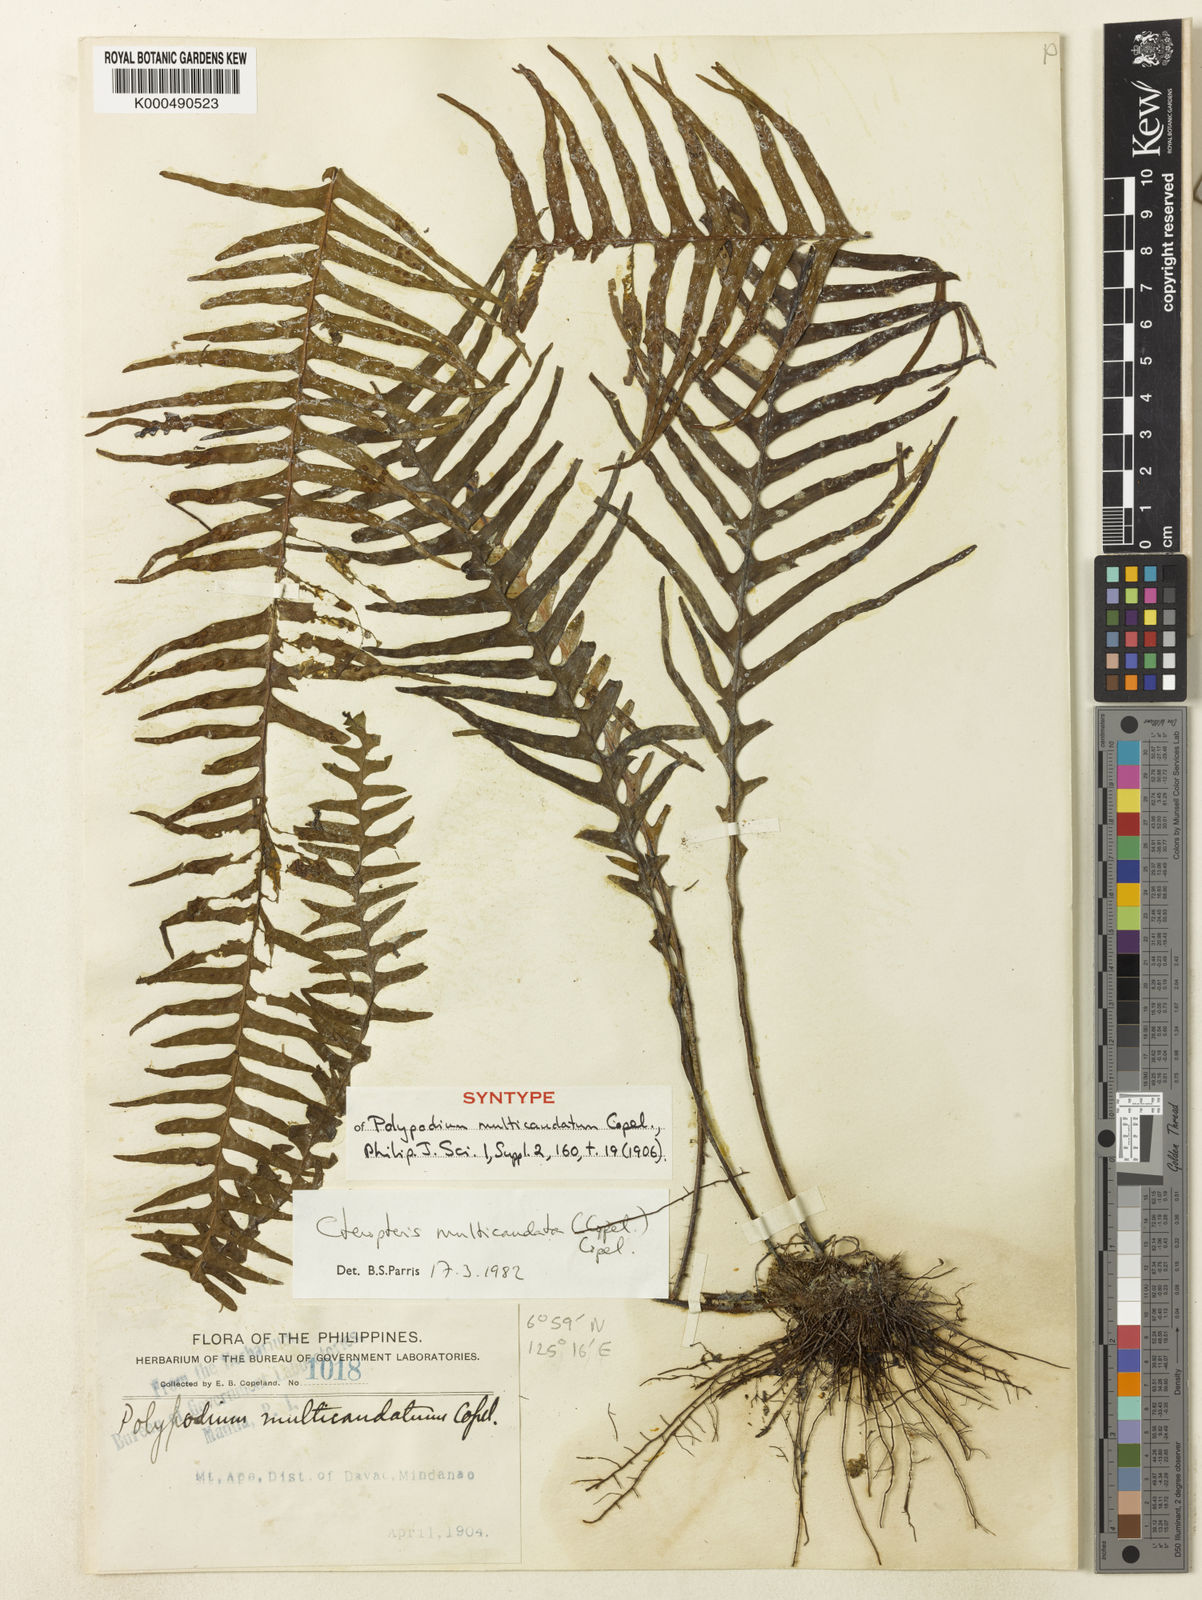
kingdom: Plantae
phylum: Tracheophyta
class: Polypodiopsida
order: Polypodiales
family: Polypodiaceae
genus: Prosaptia
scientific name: Prosaptia multicaudata
